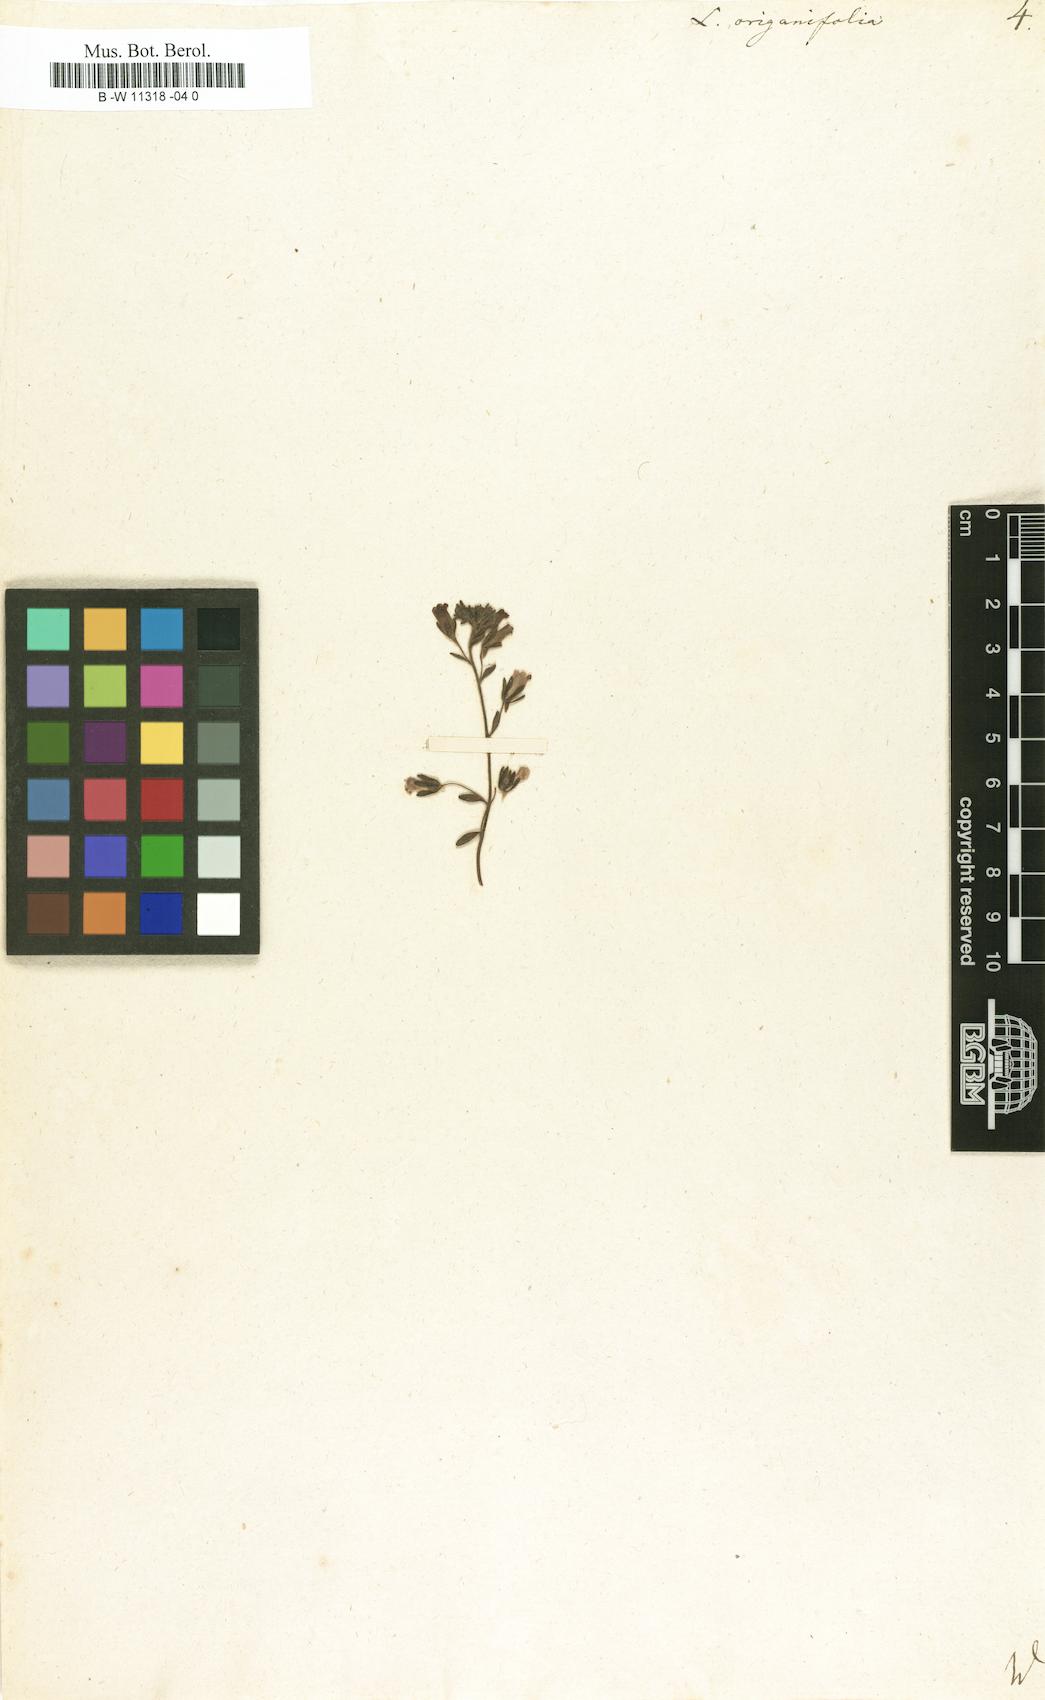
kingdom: Plantae
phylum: Tracheophyta
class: Magnoliopsida
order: Lamiales
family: Plantaginaceae
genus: Chaenorhinum
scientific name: Chaenorhinum origanifolium
